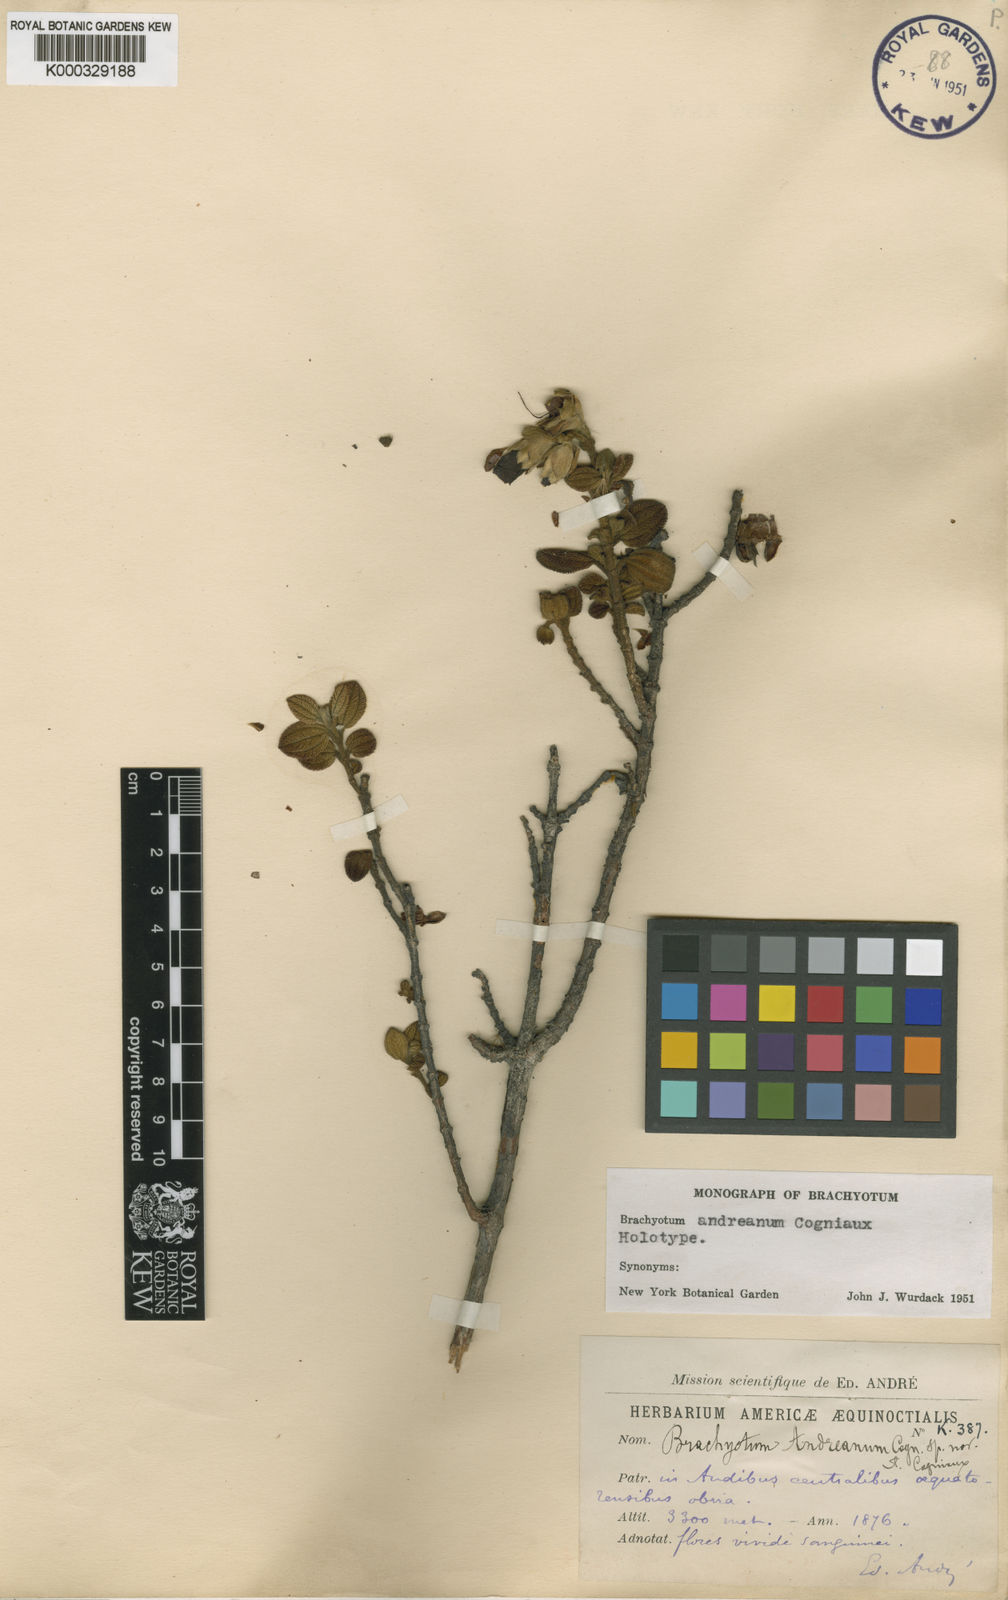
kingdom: Plantae
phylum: Tracheophyta
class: Magnoliopsida
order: Myrtales
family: Melastomataceae
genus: Brachyotum
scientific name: Brachyotum andreanum
